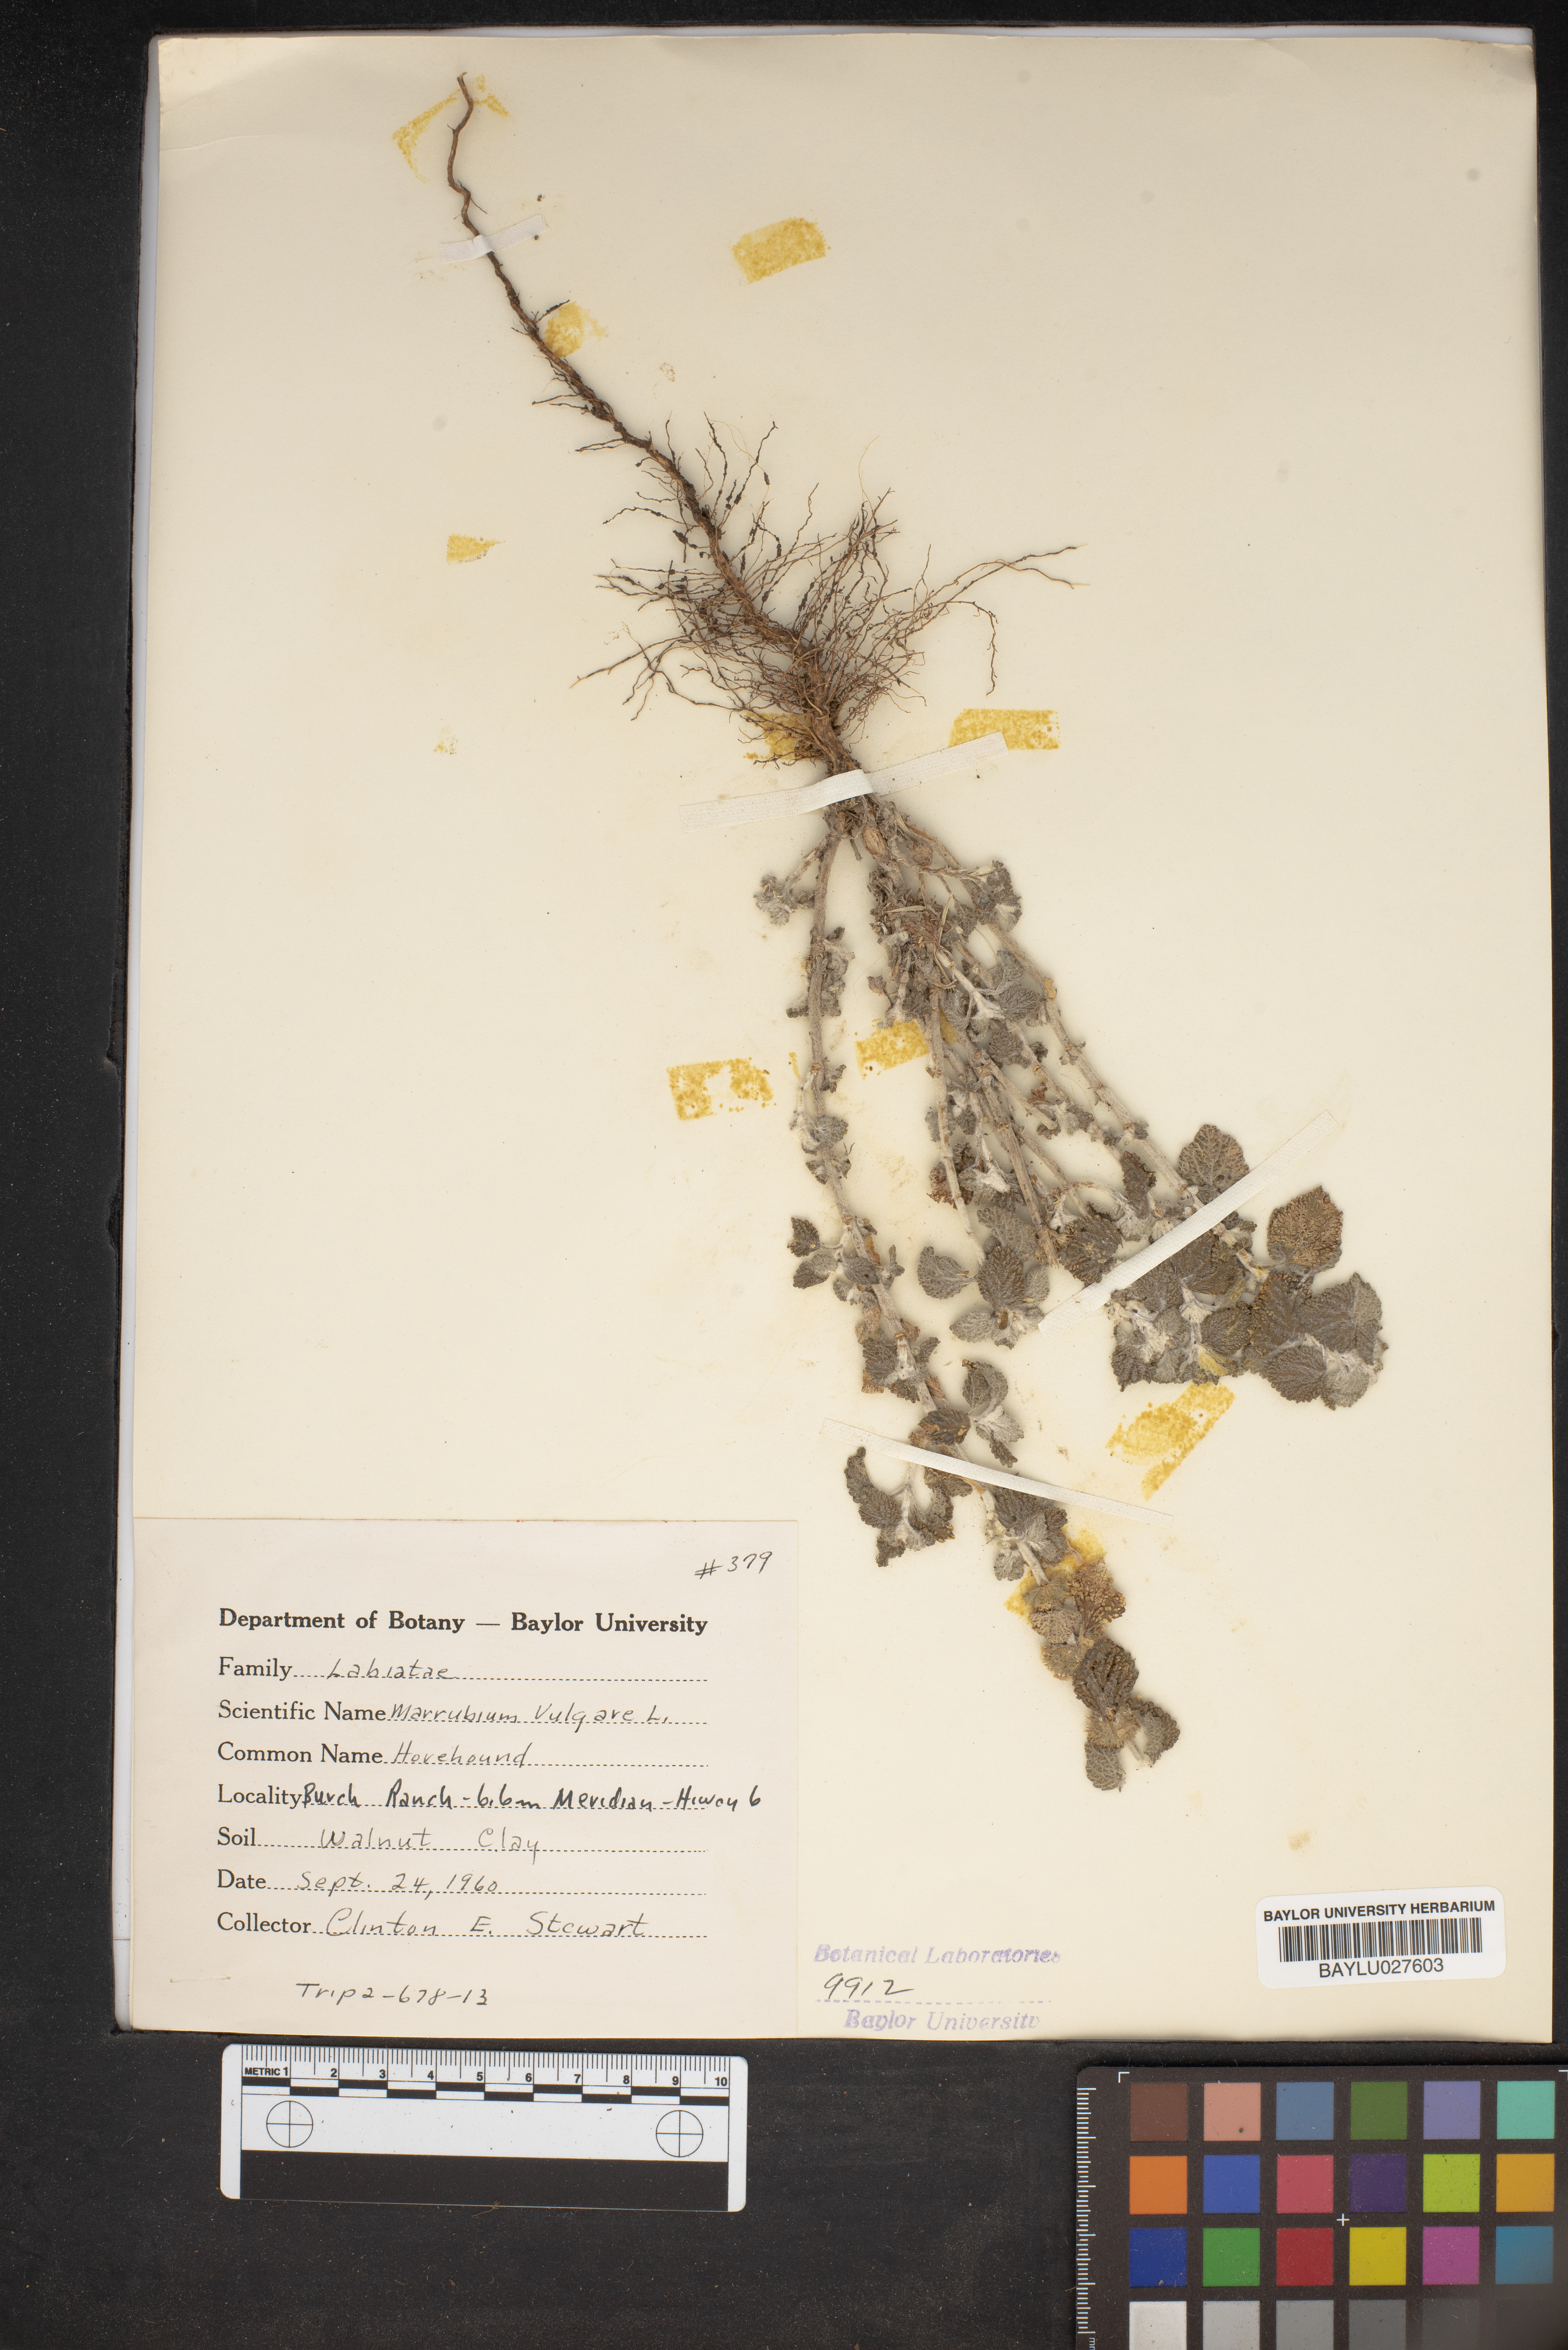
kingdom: Plantae
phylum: Tracheophyta
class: Magnoliopsida
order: Lamiales
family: Lamiaceae
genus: Marrubium
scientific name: Marrubium vulgare
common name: Horehound
